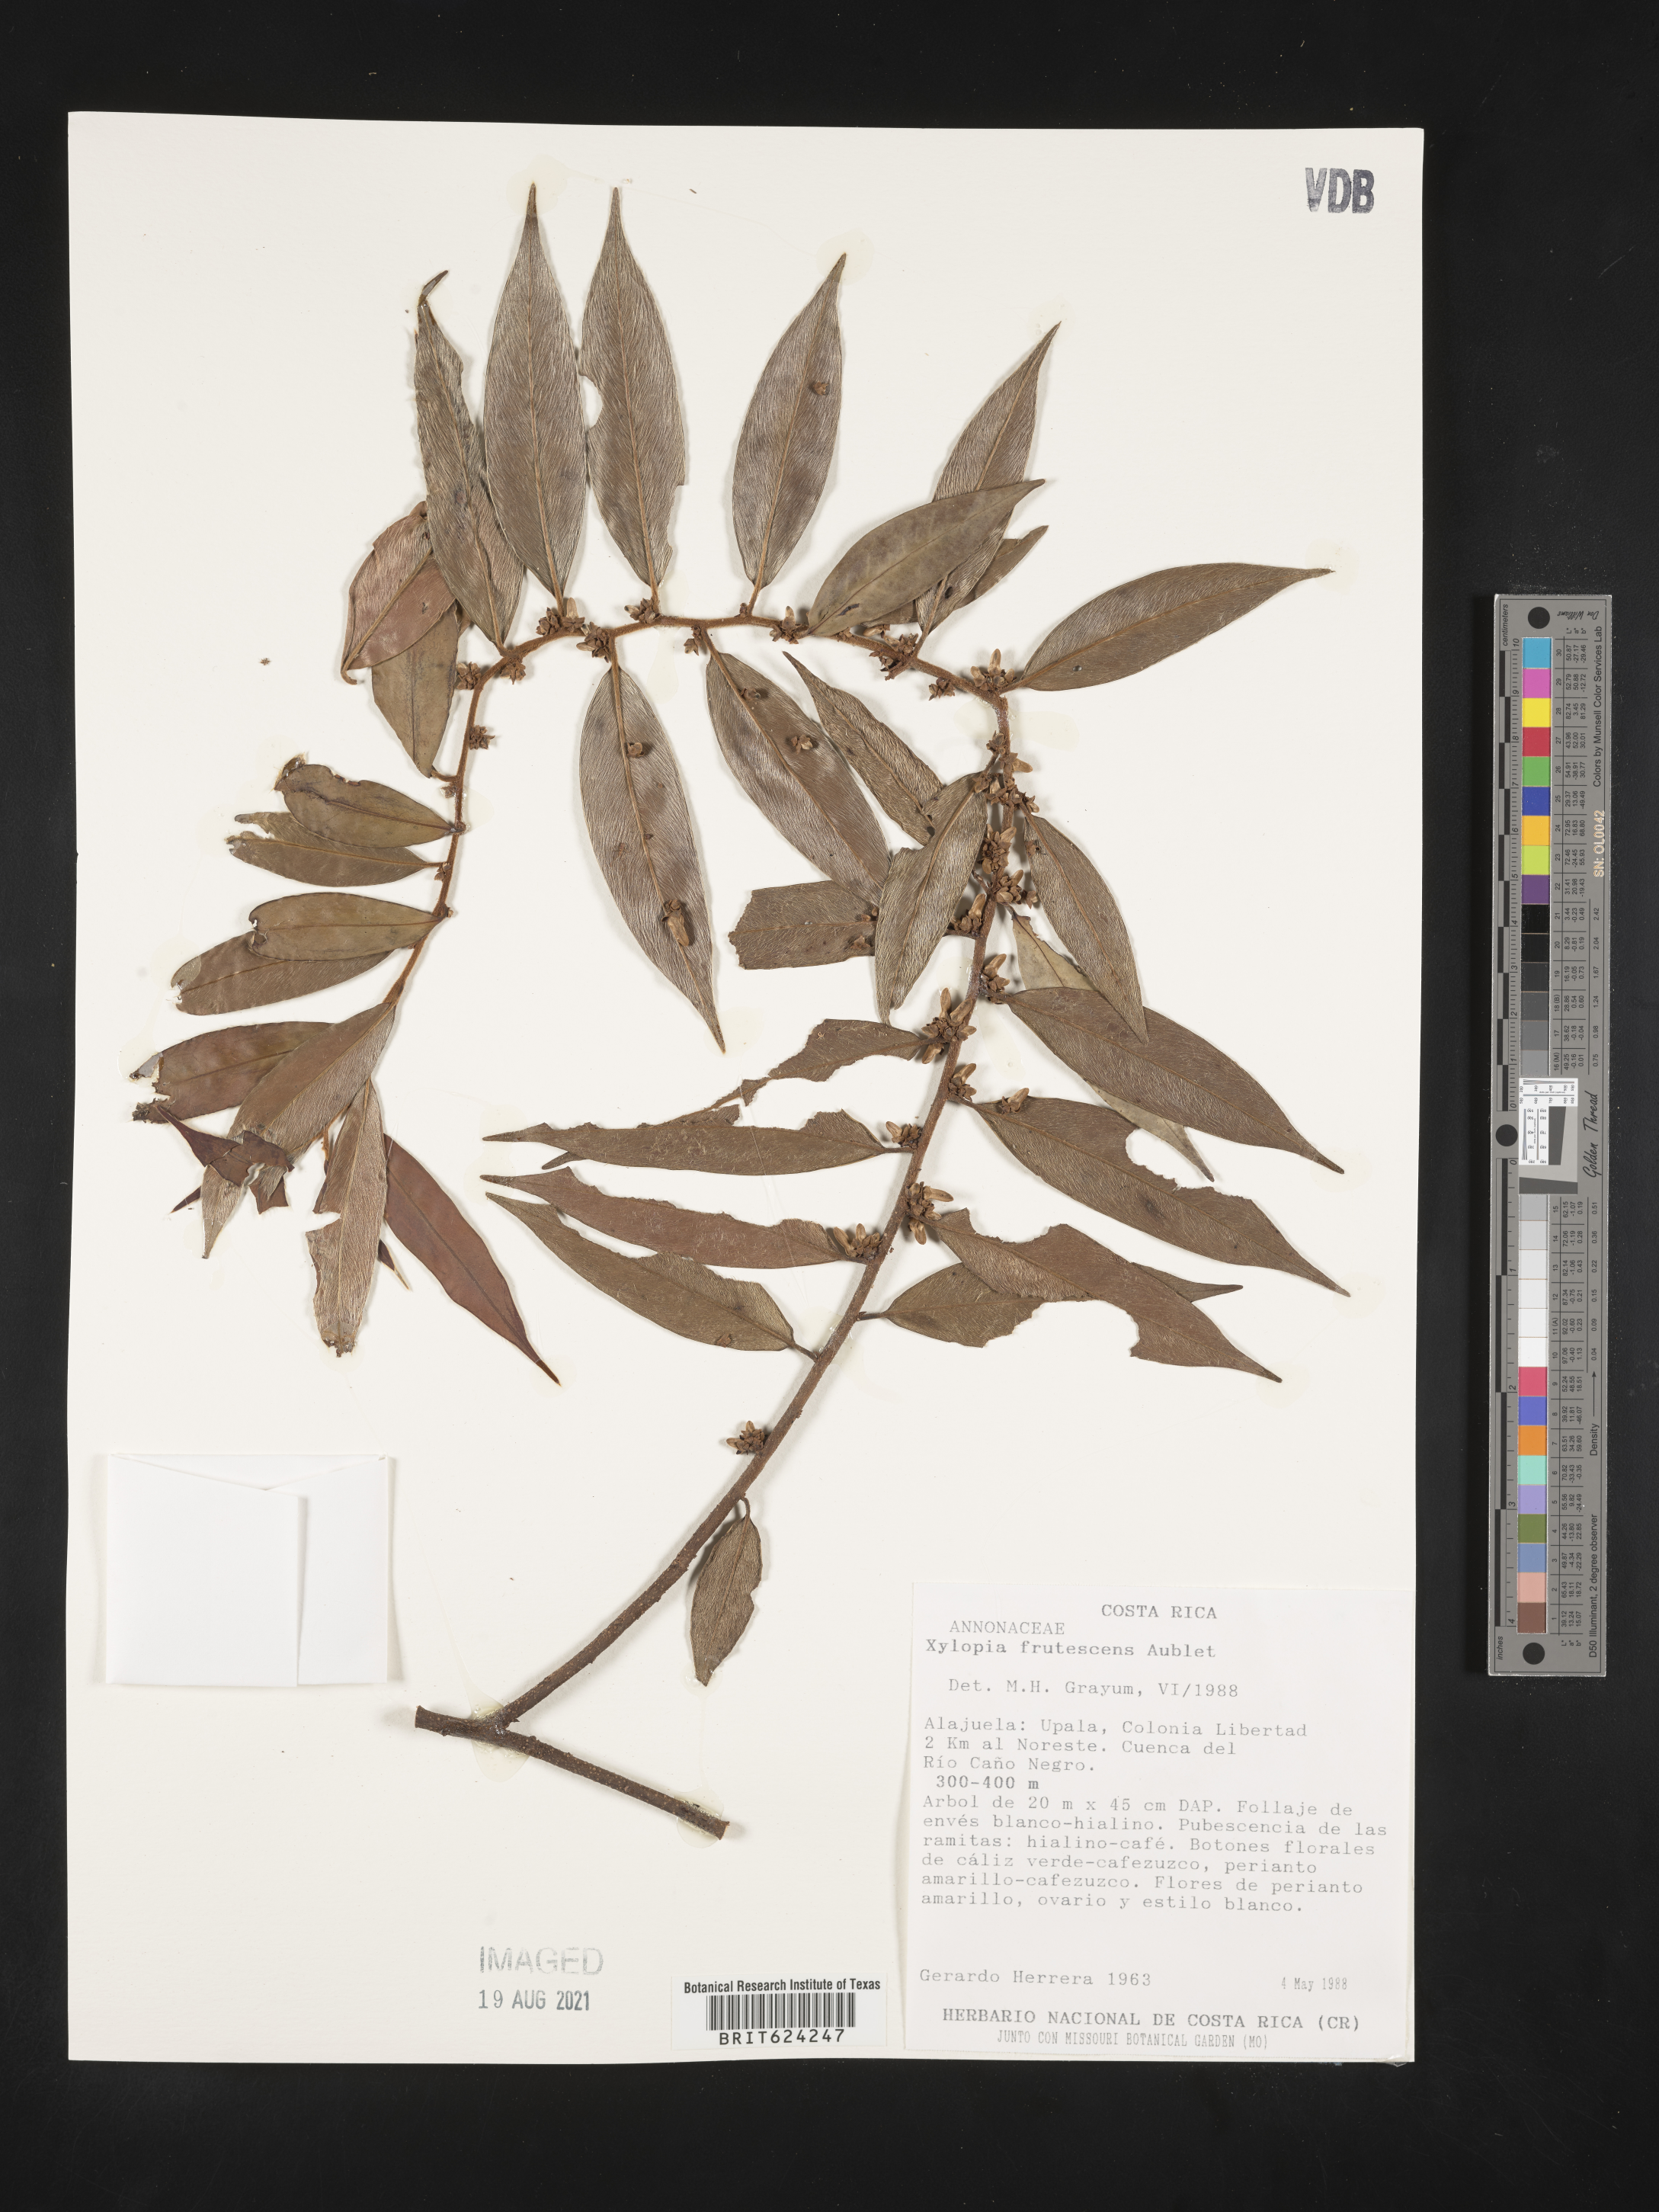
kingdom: Plantae
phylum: Tracheophyta
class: Magnoliopsida
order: Magnoliales
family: Annonaceae
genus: Xylopia
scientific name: Xylopia frutescens
